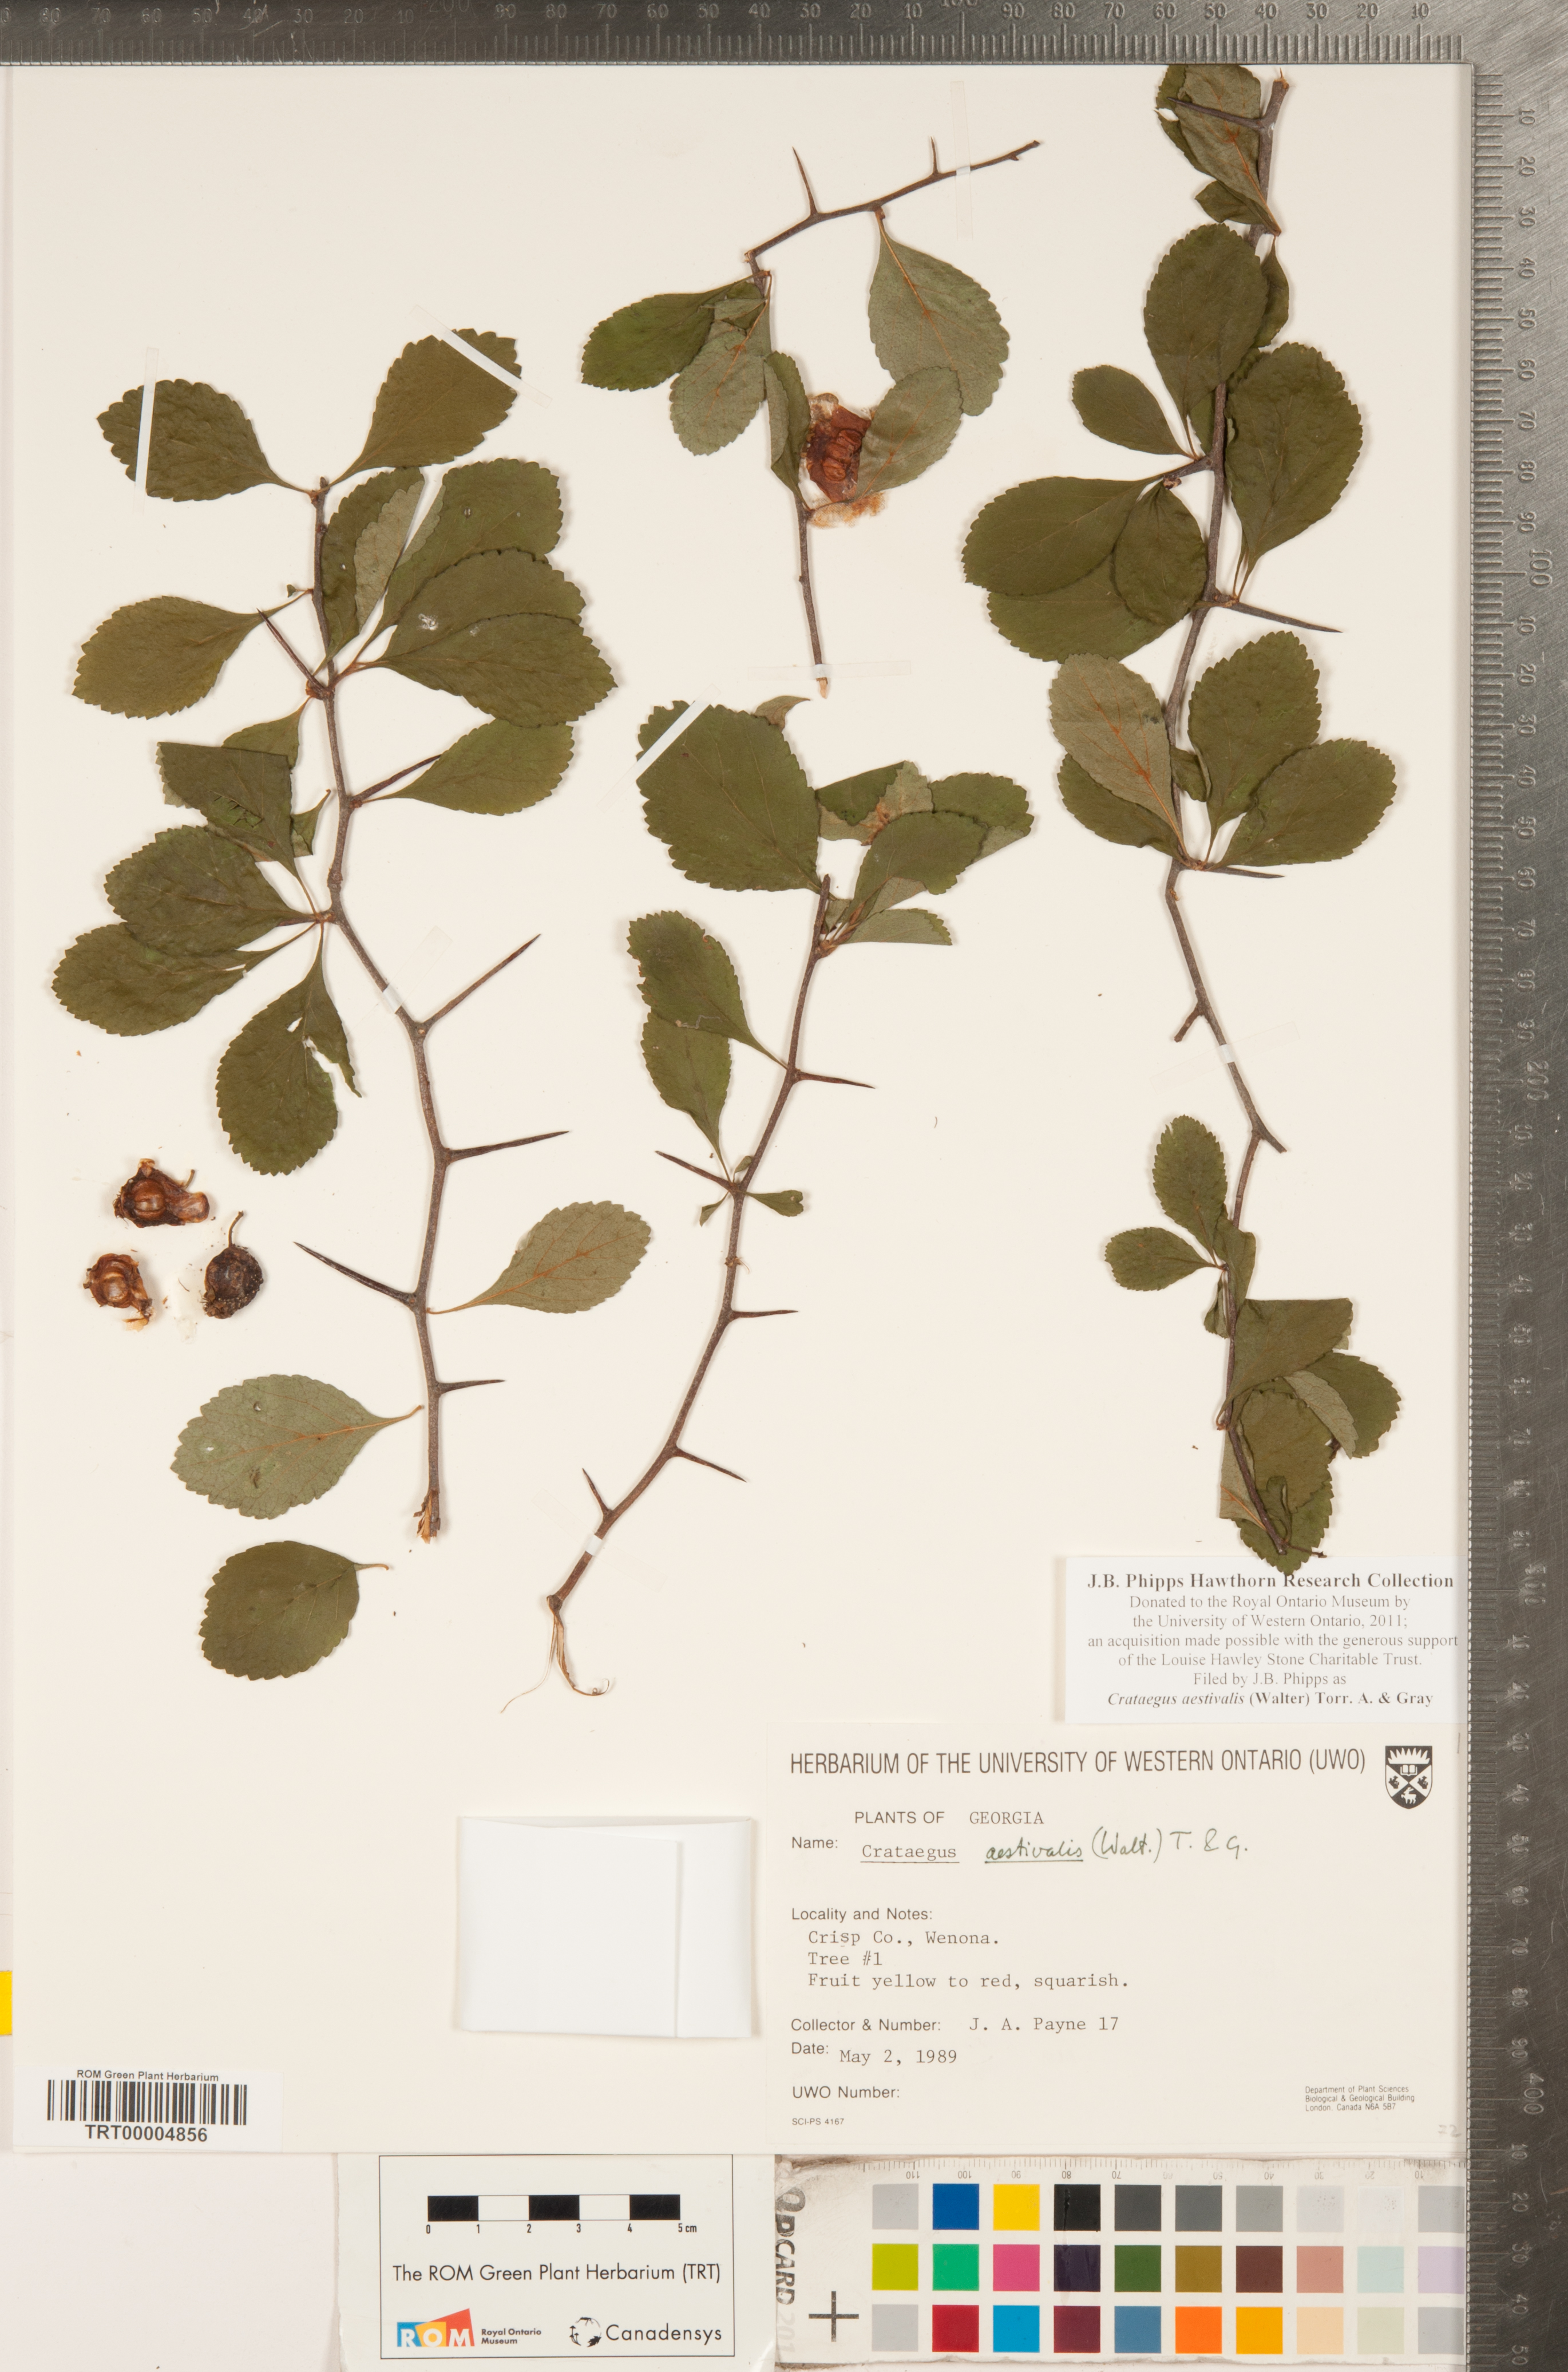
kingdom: Plantae
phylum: Tracheophyta
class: Magnoliopsida
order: Rosales
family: Rosaceae
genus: Crataegus
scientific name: Crataegus aestivalis
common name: Mayhaw
